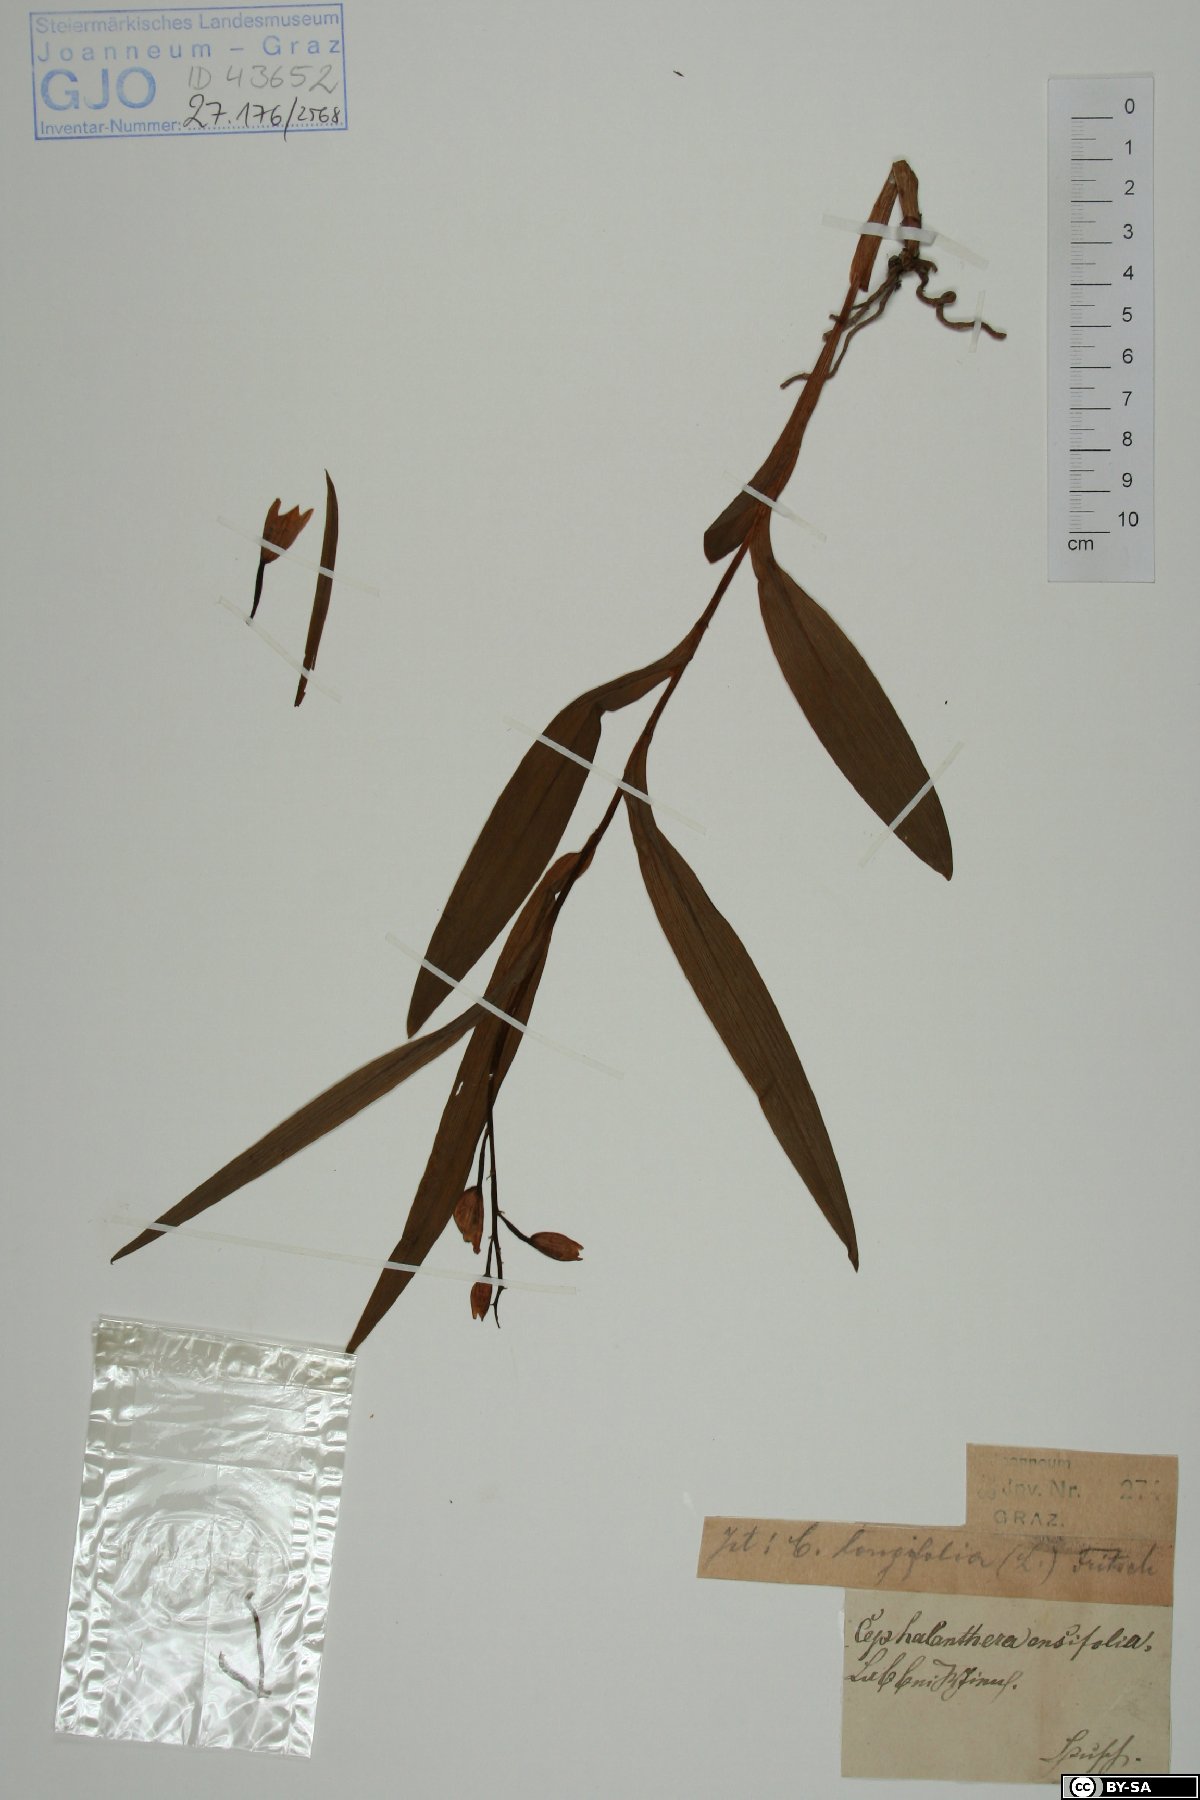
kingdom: Plantae
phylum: Tracheophyta
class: Liliopsida
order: Asparagales
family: Orchidaceae
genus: Cephalanthera
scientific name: Cephalanthera longifolia
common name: Narrow-leaved helleborine
